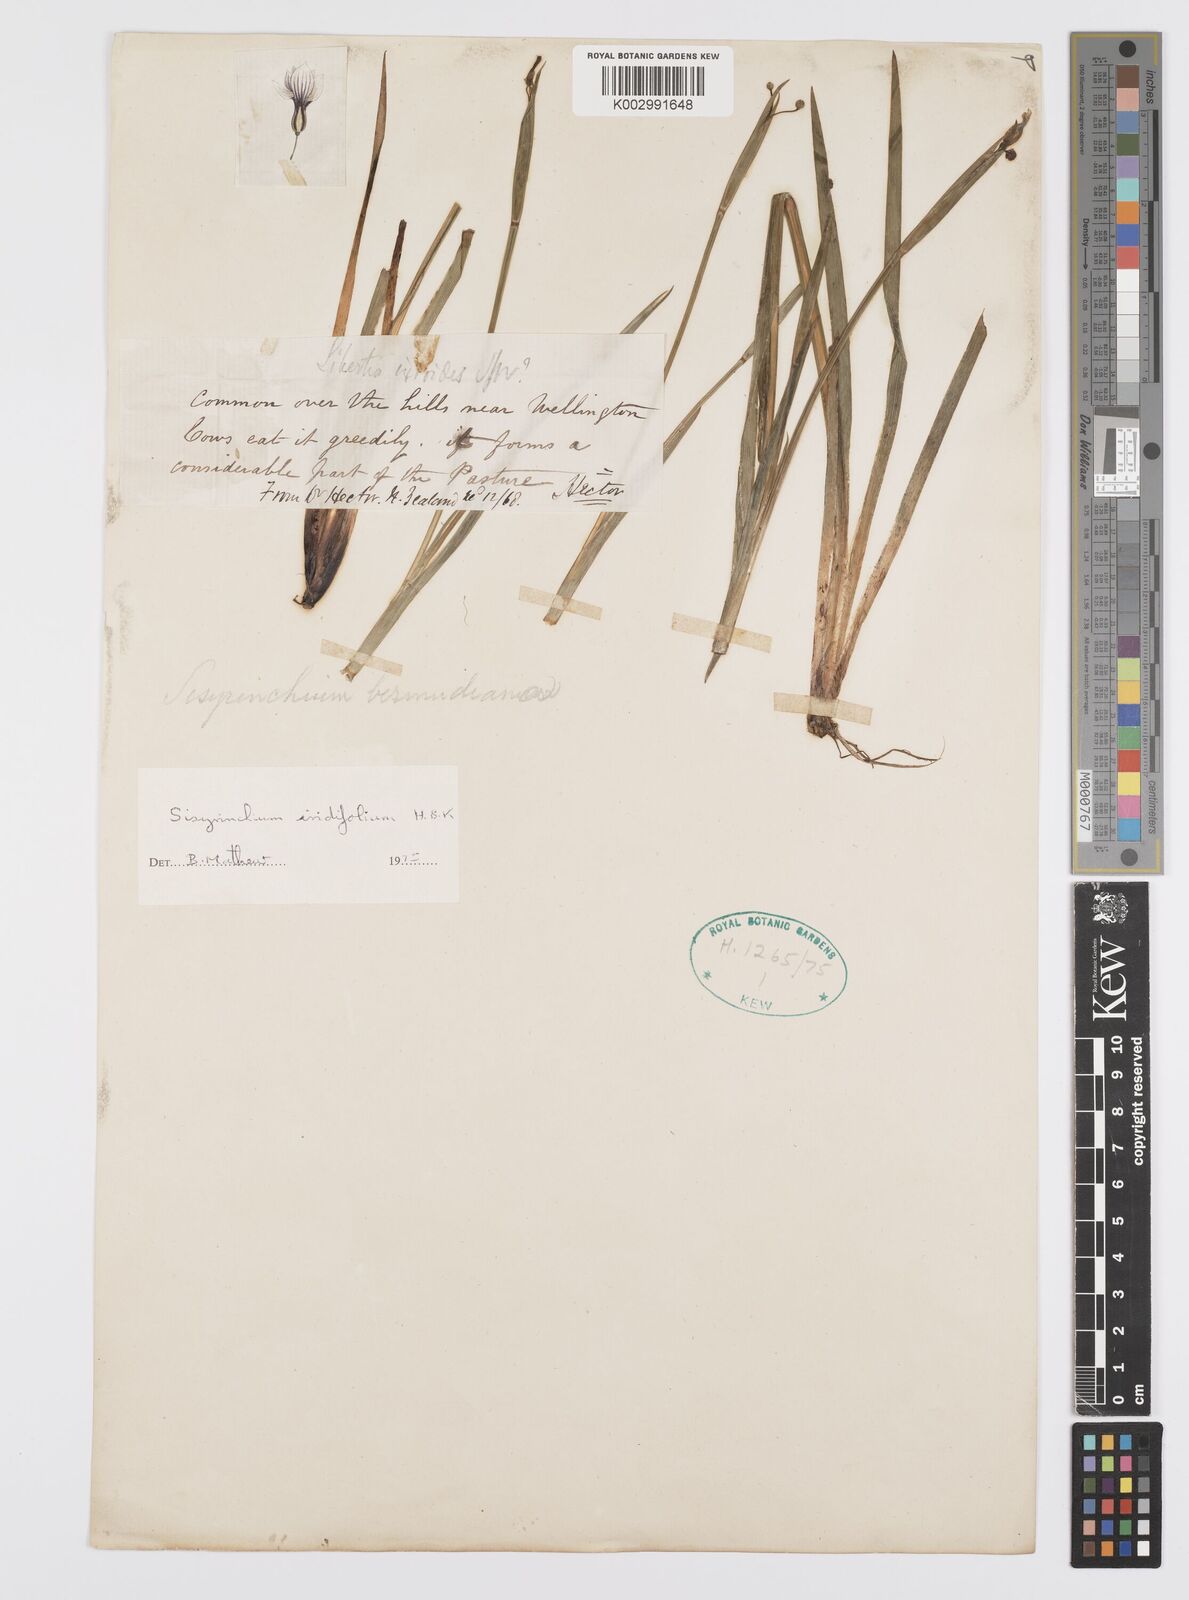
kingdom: Plantae
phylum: Tracheophyta
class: Liliopsida
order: Asparagales
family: Iridaceae
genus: Sisyrinchium
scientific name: Sisyrinchium bermudiana
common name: Blue-eyed-grass
